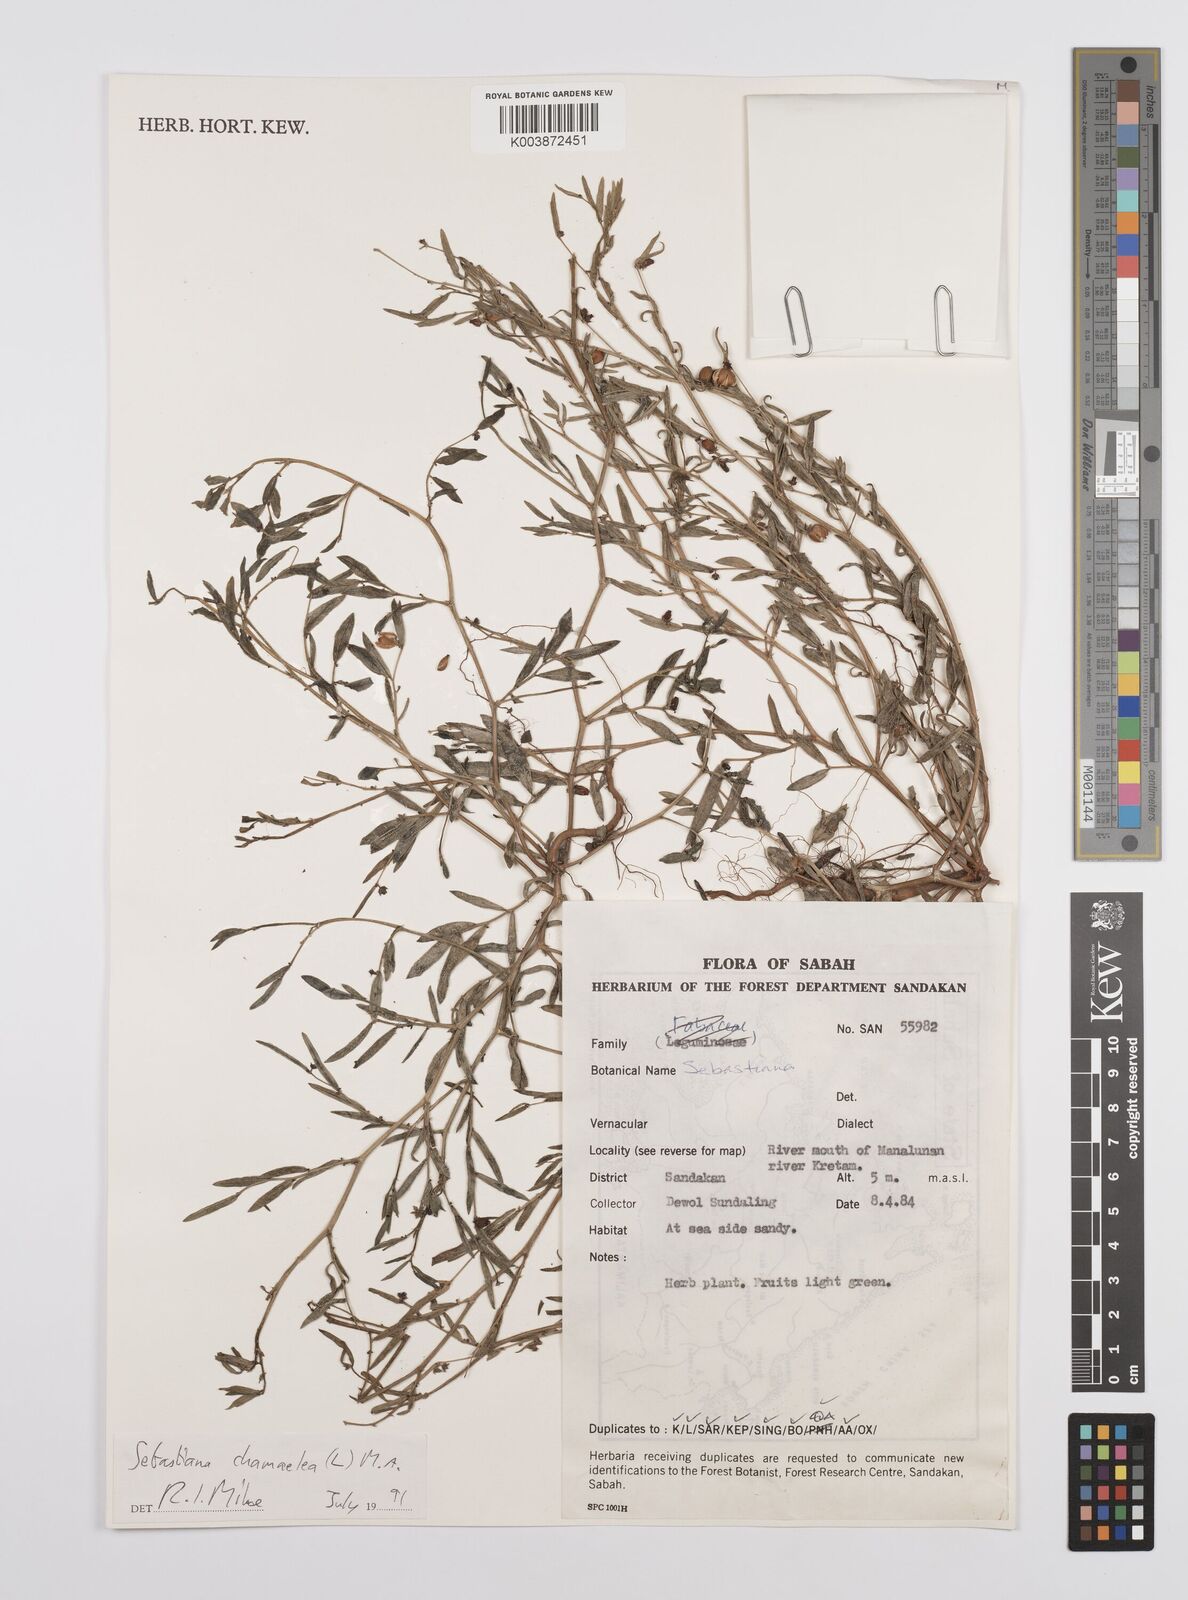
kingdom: Plantae
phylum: Tracheophyta
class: Magnoliopsida
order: Malpighiales
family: Euphorbiaceae
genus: Microstachys
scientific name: Microstachys chamaelea
